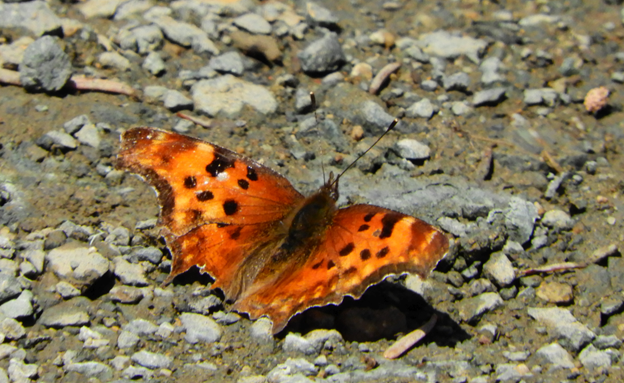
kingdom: Animalia
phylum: Arthropoda
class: Insecta
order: Lepidoptera
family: Nymphalidae
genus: Polygonia
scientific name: Polygonia gracilis
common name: Hoary Comma
